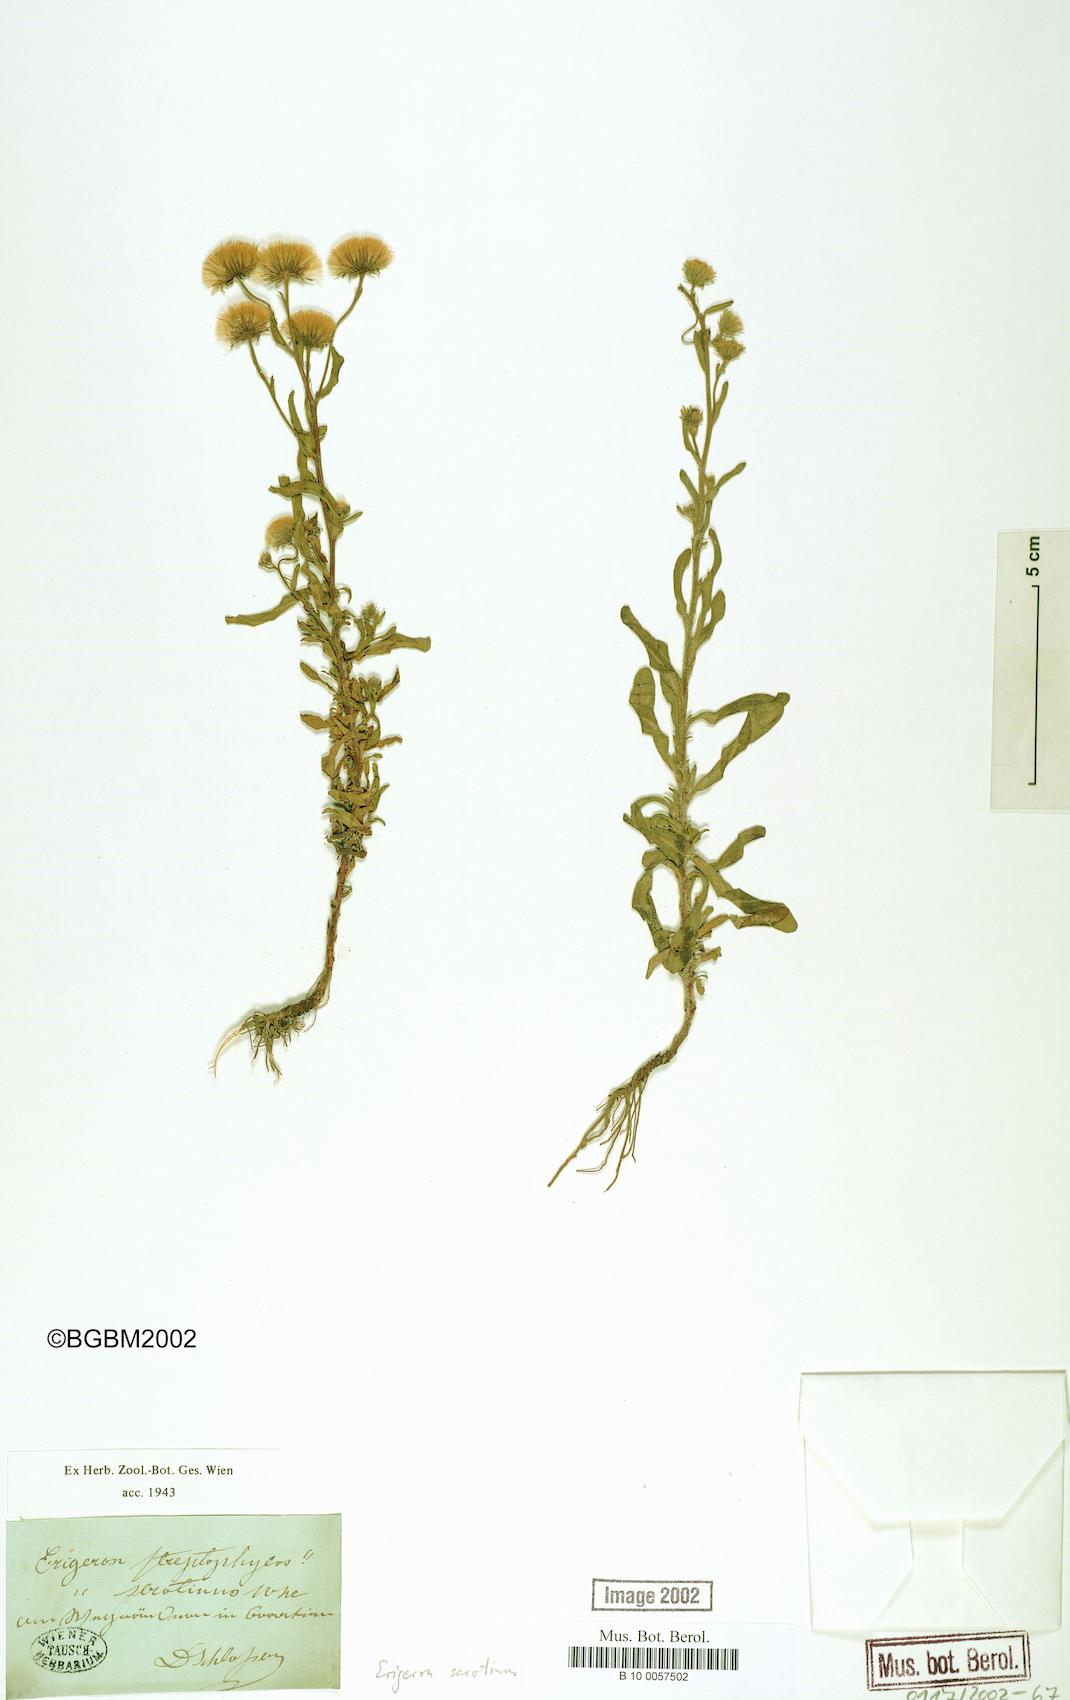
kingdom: Plantae
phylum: Tracheophyta
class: Magnoliopsida
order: Asterales
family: Asteraceae
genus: Erigeron
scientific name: Erigeron muralis
